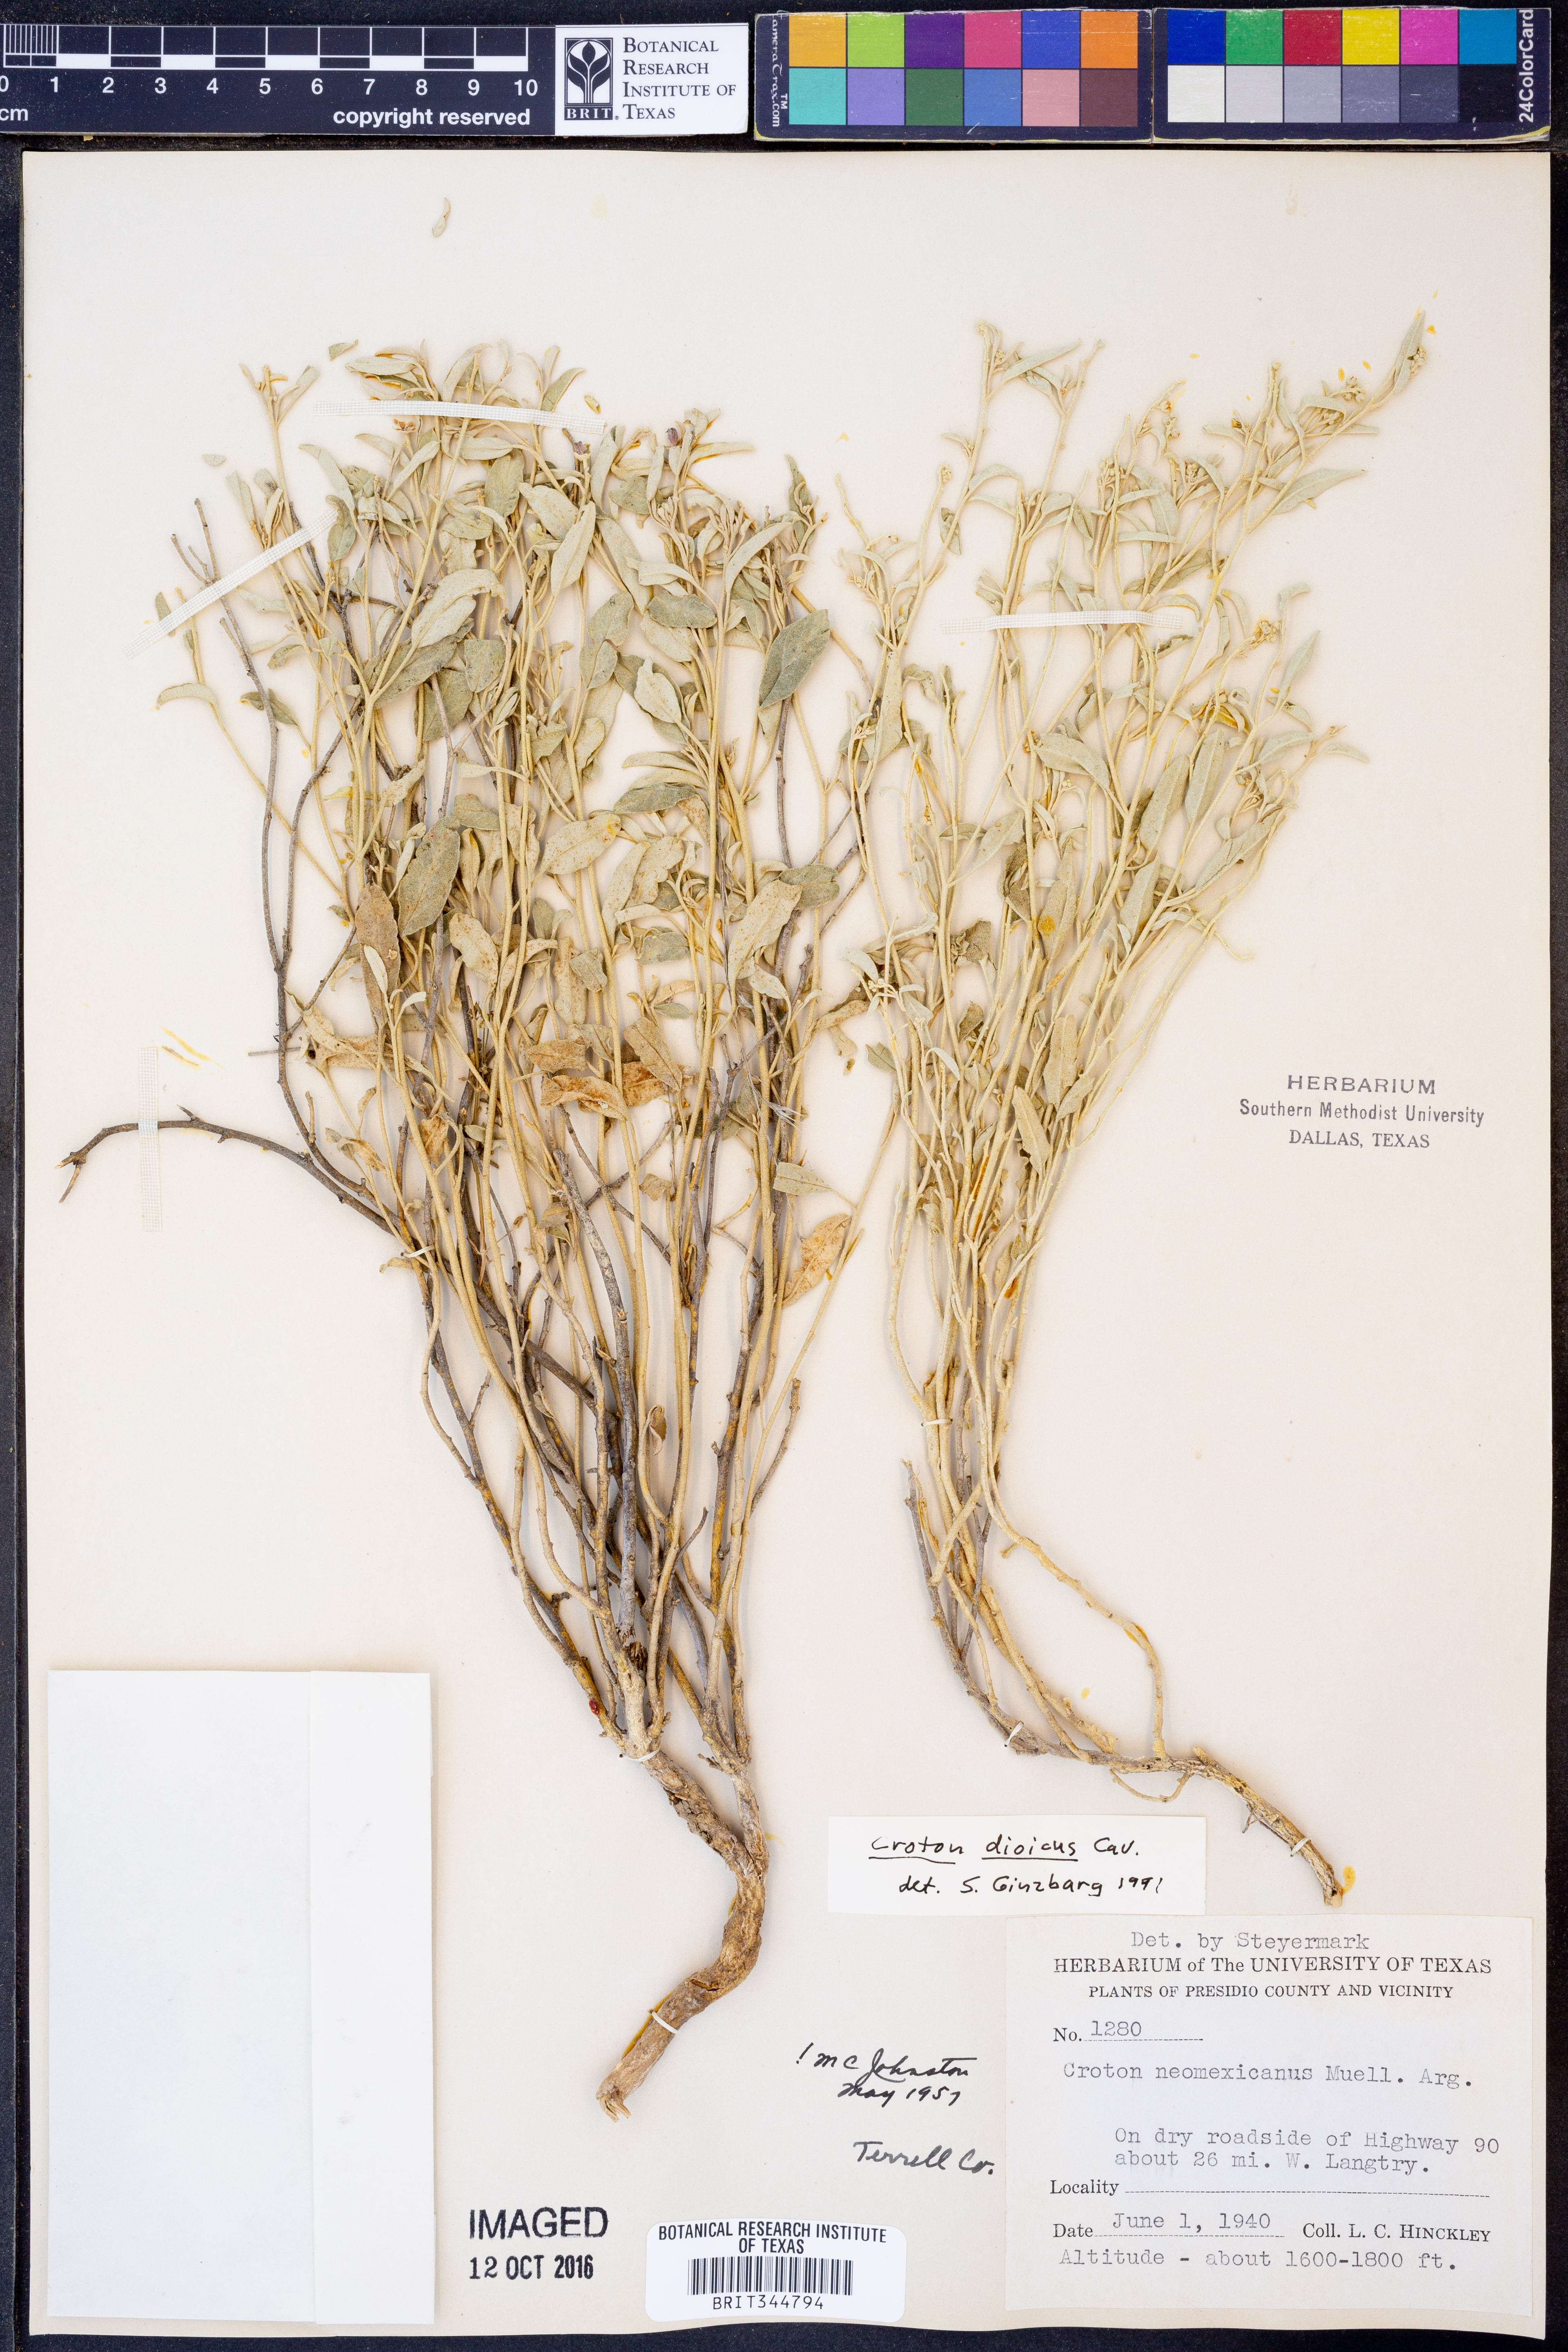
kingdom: Plantae
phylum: Tracheophyta
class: Magnoliopsida
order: Malpighiales
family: Euphorbiaceae
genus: Croton
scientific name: Croton dioicus
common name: Grassland croton
